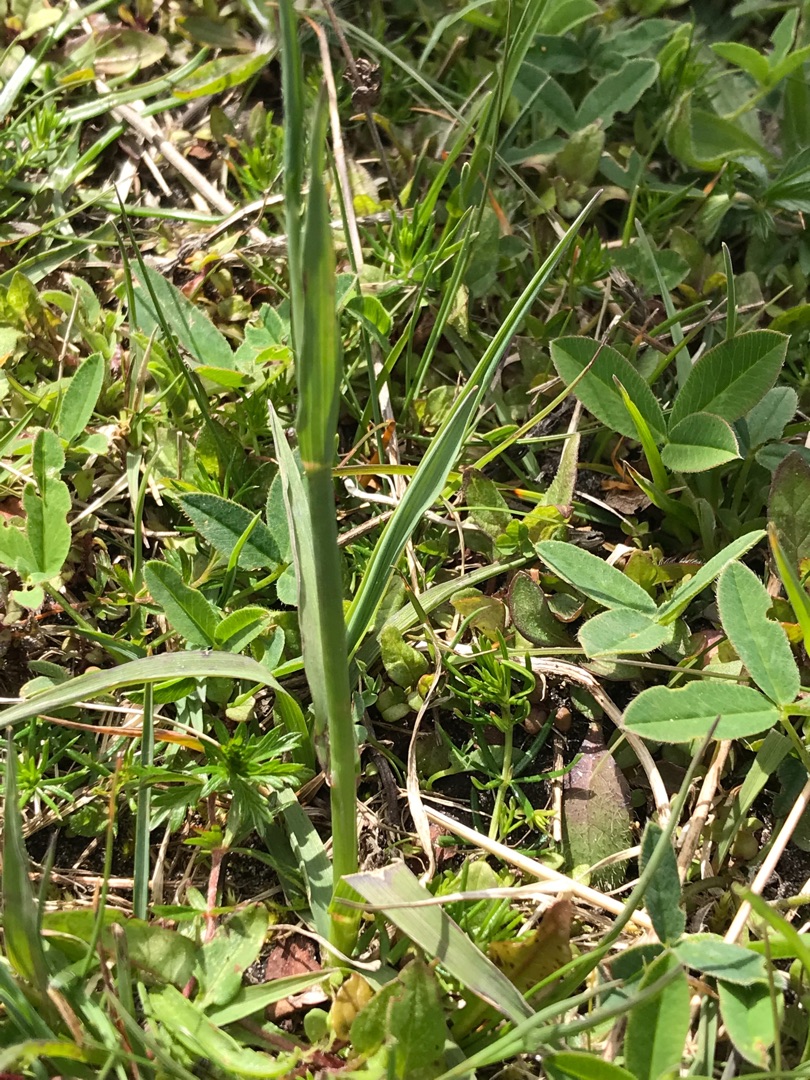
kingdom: Plantae
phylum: Tracheophyta
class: Liliopsida
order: Poales
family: Poaceae
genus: Briza
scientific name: Briza media
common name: Hjertegræs
